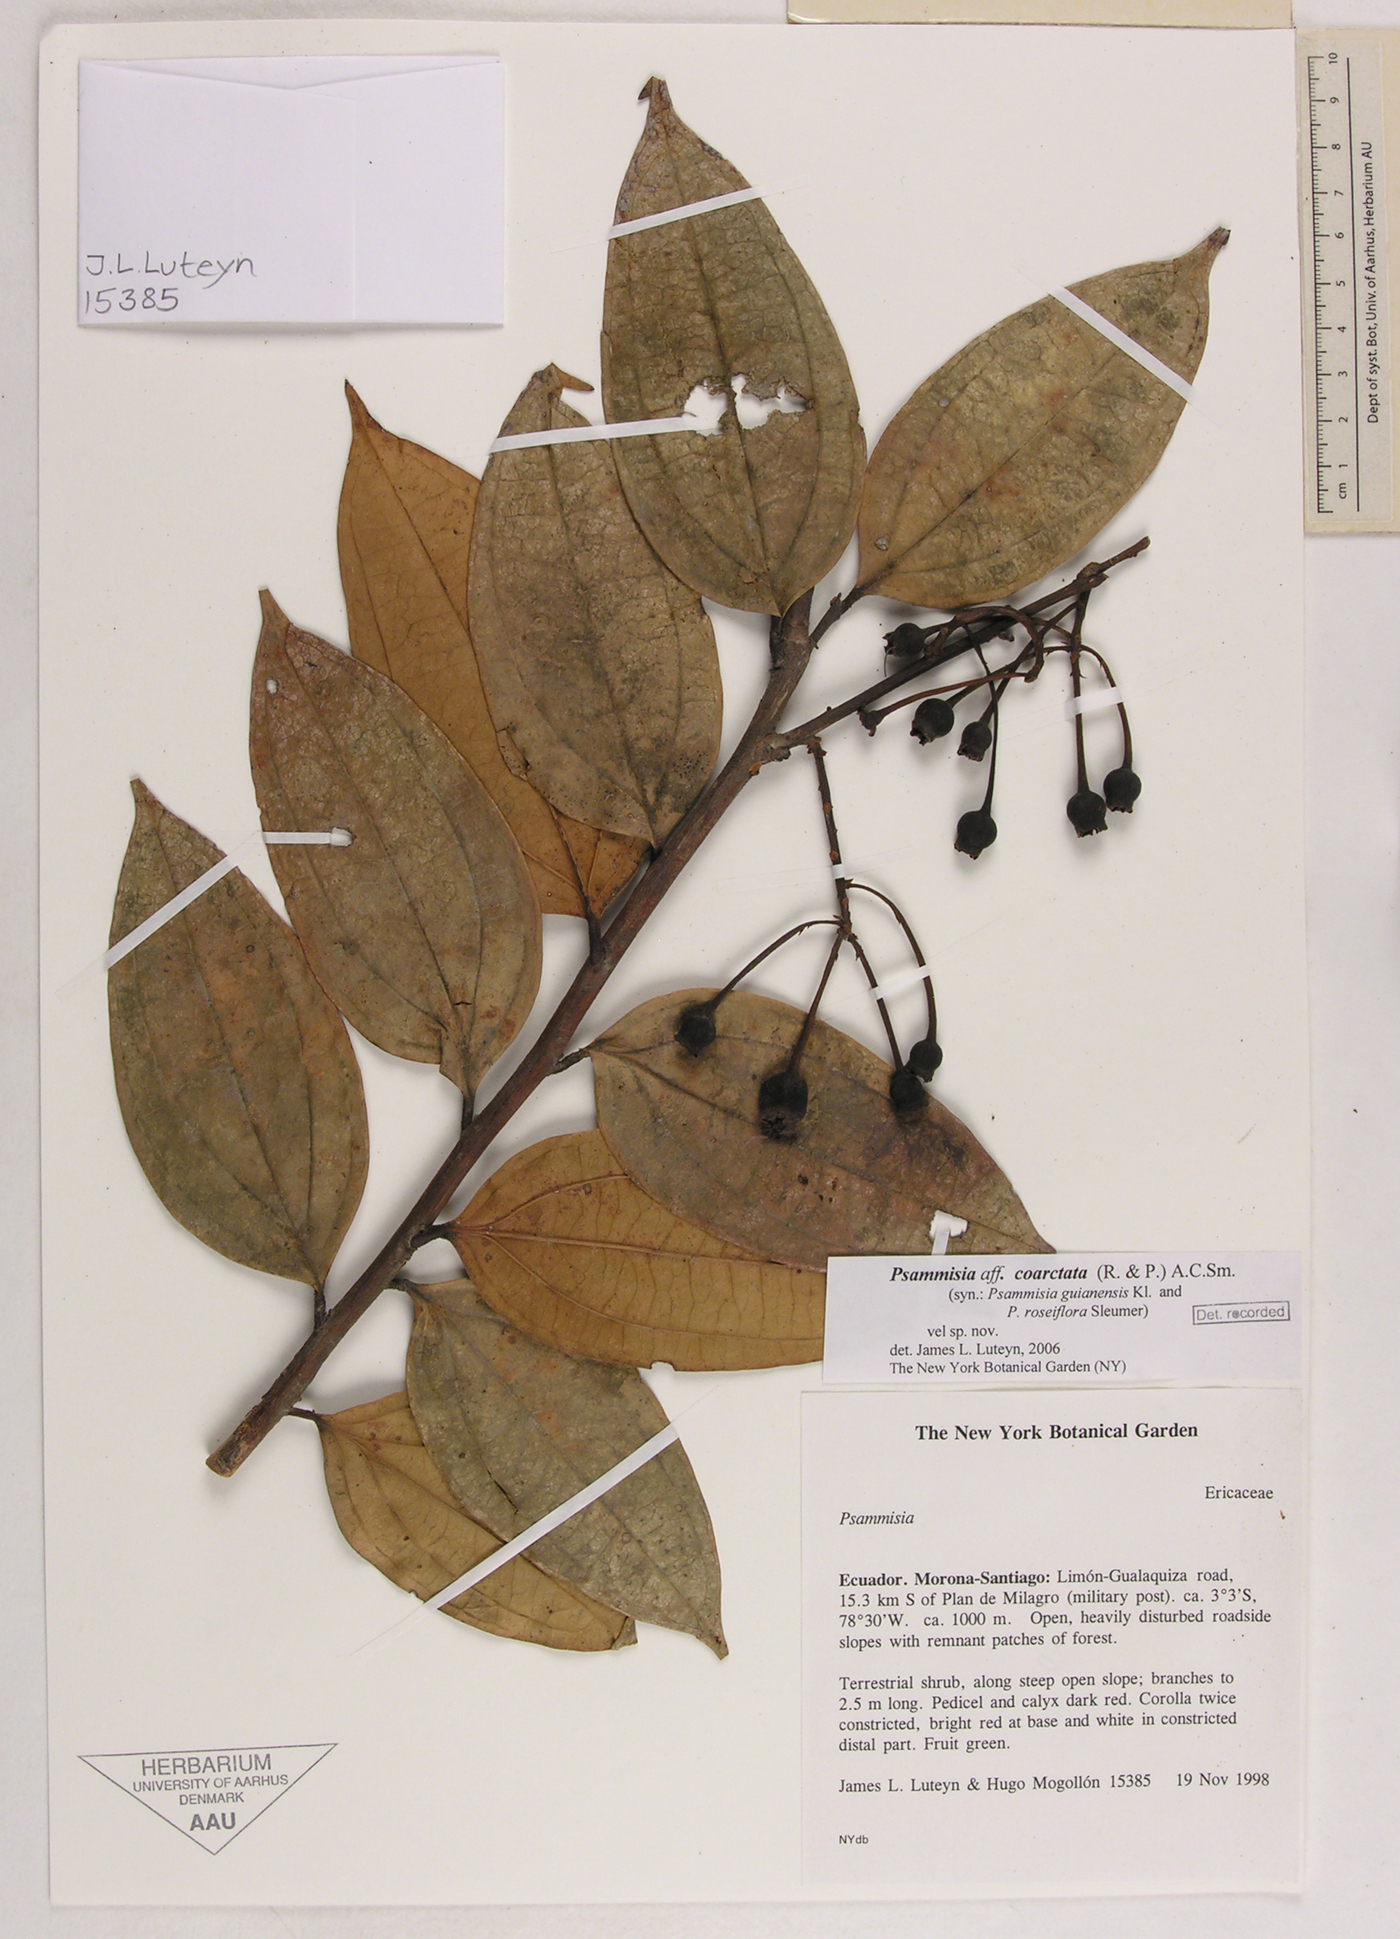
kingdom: Plantae
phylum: Tracheophyta
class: Magnoliopsida
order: Ericales
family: Ericaceae
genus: Psammisia
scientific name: Psammisia coarctata
